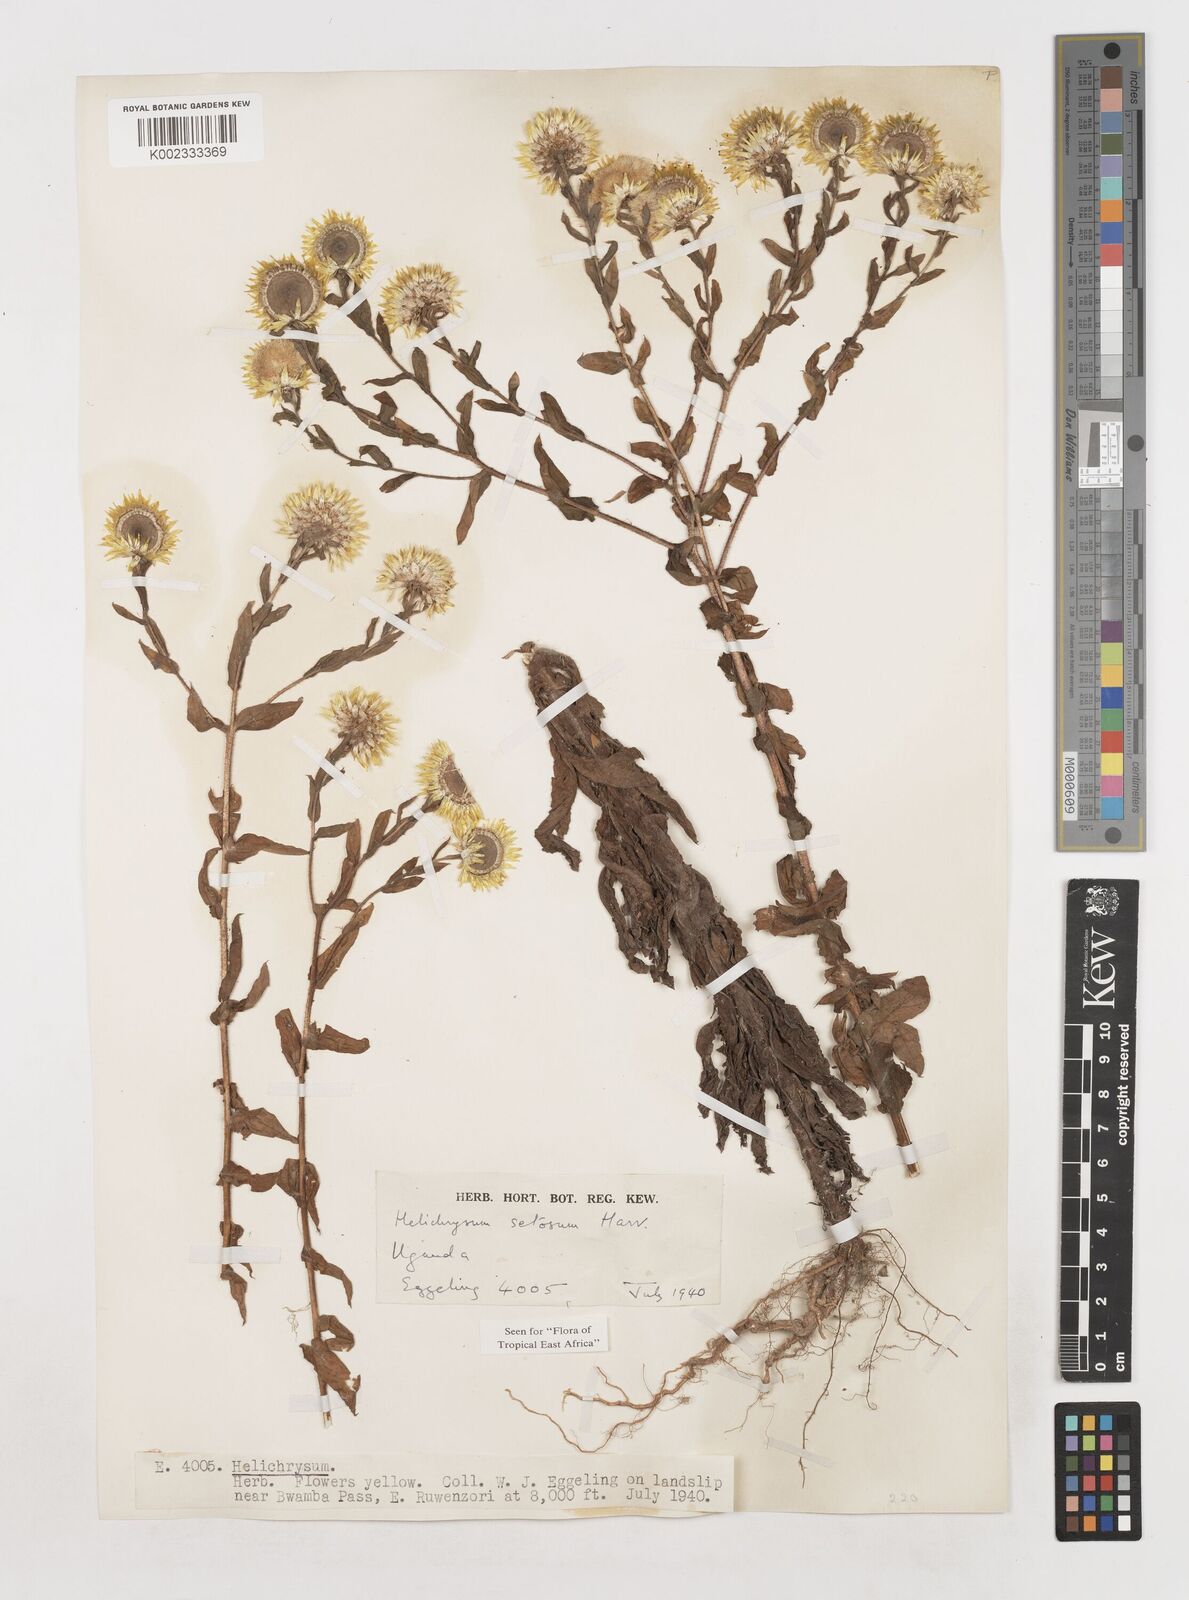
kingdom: Plantae
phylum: Tracheophyta
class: Magnoliopsida
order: Asterales
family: Asteraceae
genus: Helichrysum
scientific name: Helichrysum setosum
